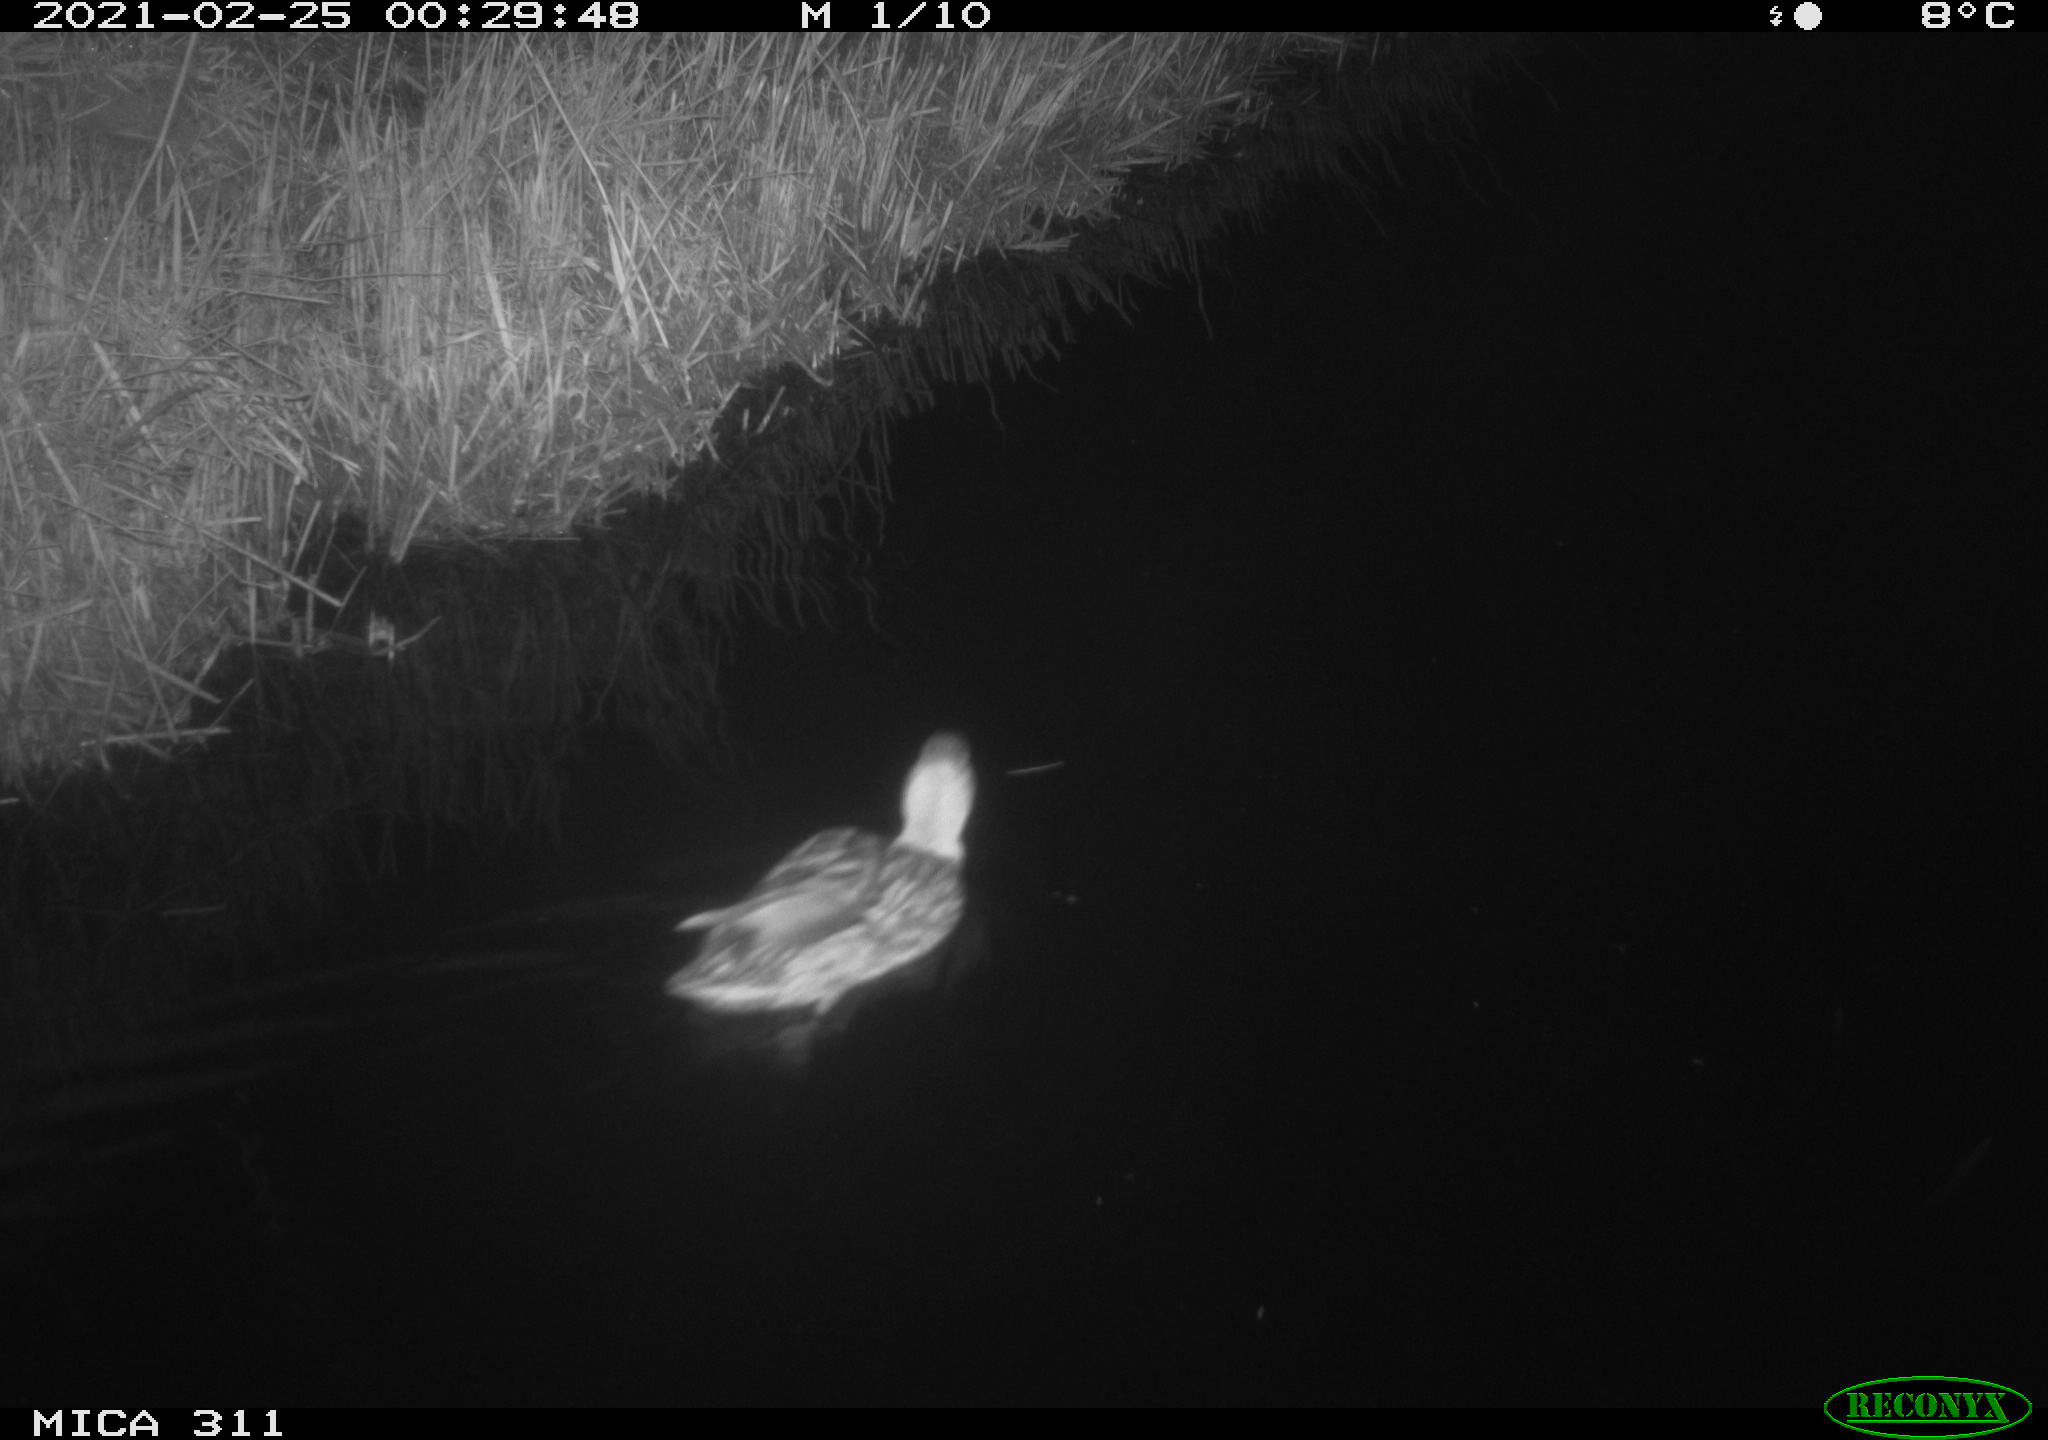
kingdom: Animalia
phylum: Chordata
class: Aves
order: Anseriformes
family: Anatidae
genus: Anas
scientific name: Anas platyrhynchos
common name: Mallard
